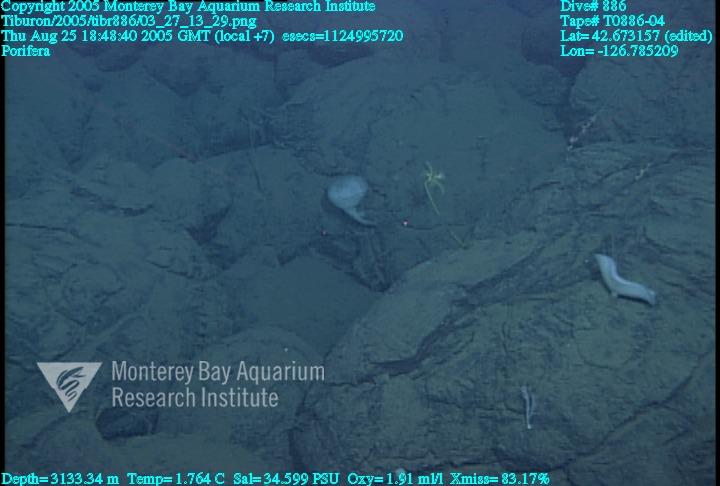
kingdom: Animalia
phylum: Porifera
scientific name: Porifera
